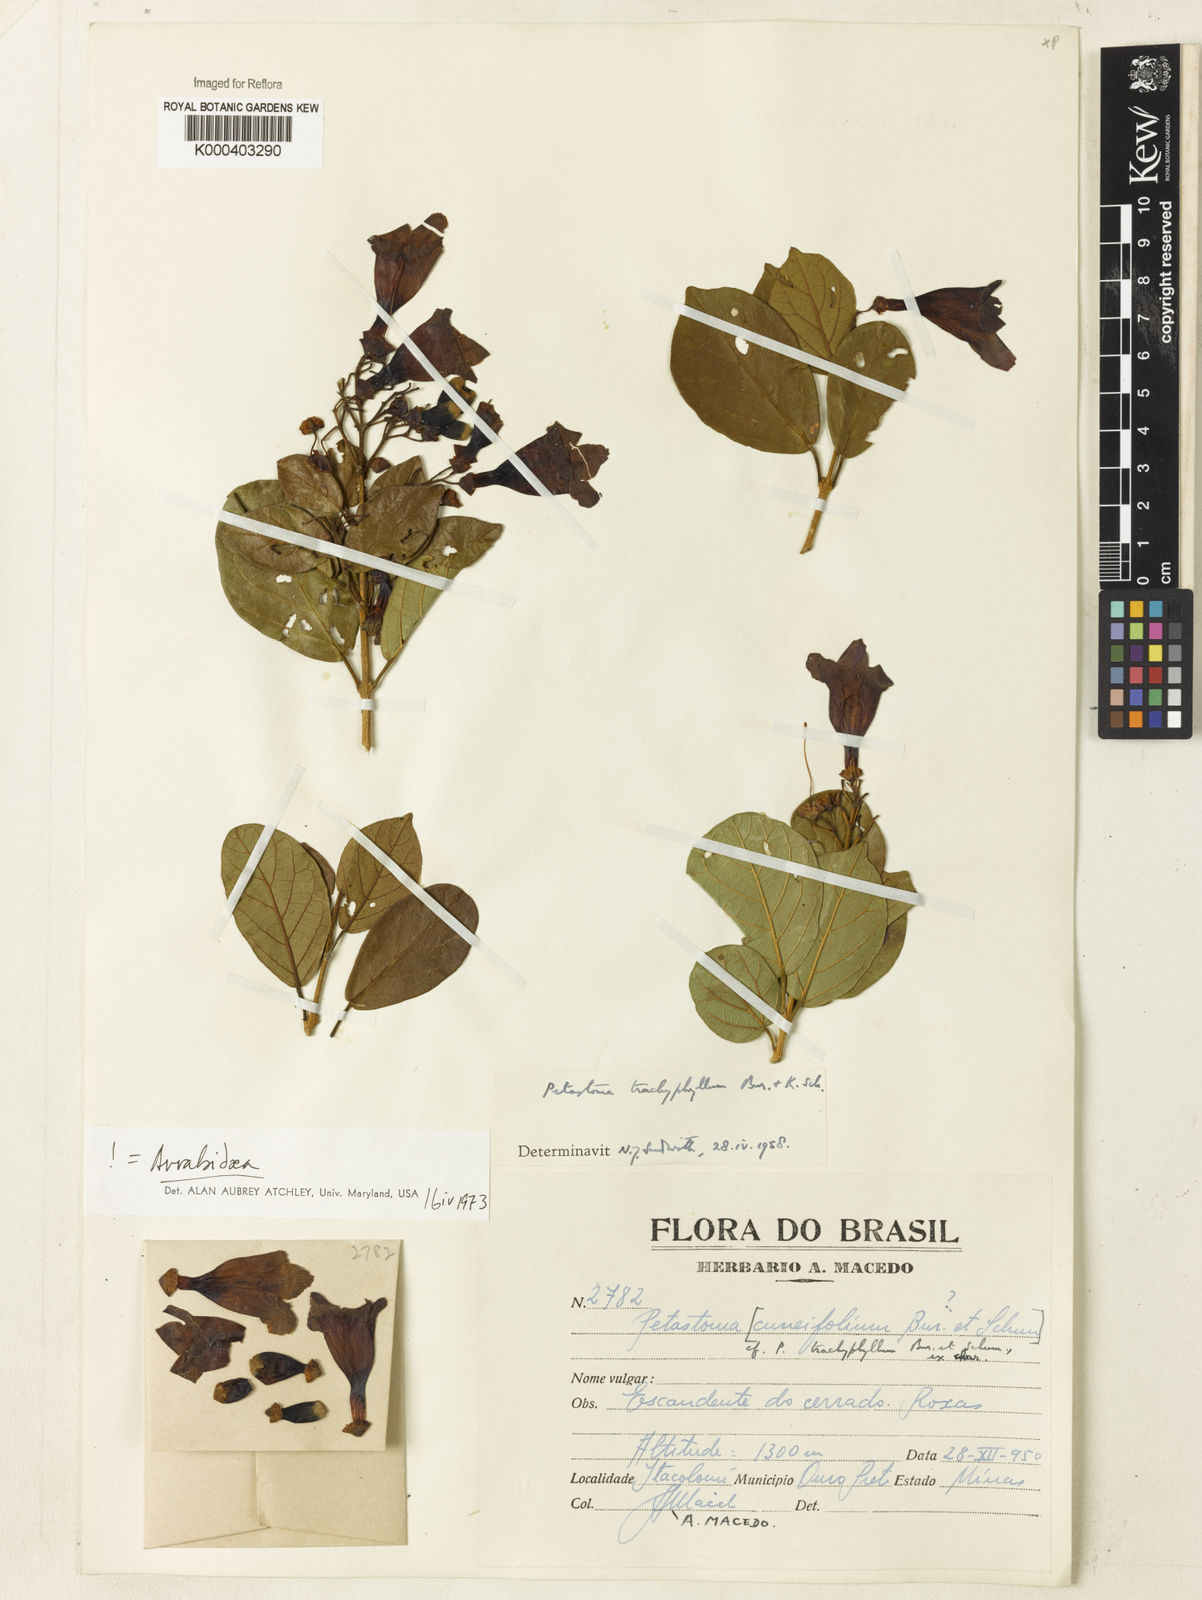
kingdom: Plantae
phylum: Tracheophyta
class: Magnoliopsida
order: Lamiales
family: Bignoniaceae
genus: Fridericia
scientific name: Fridericia trachyphylla
